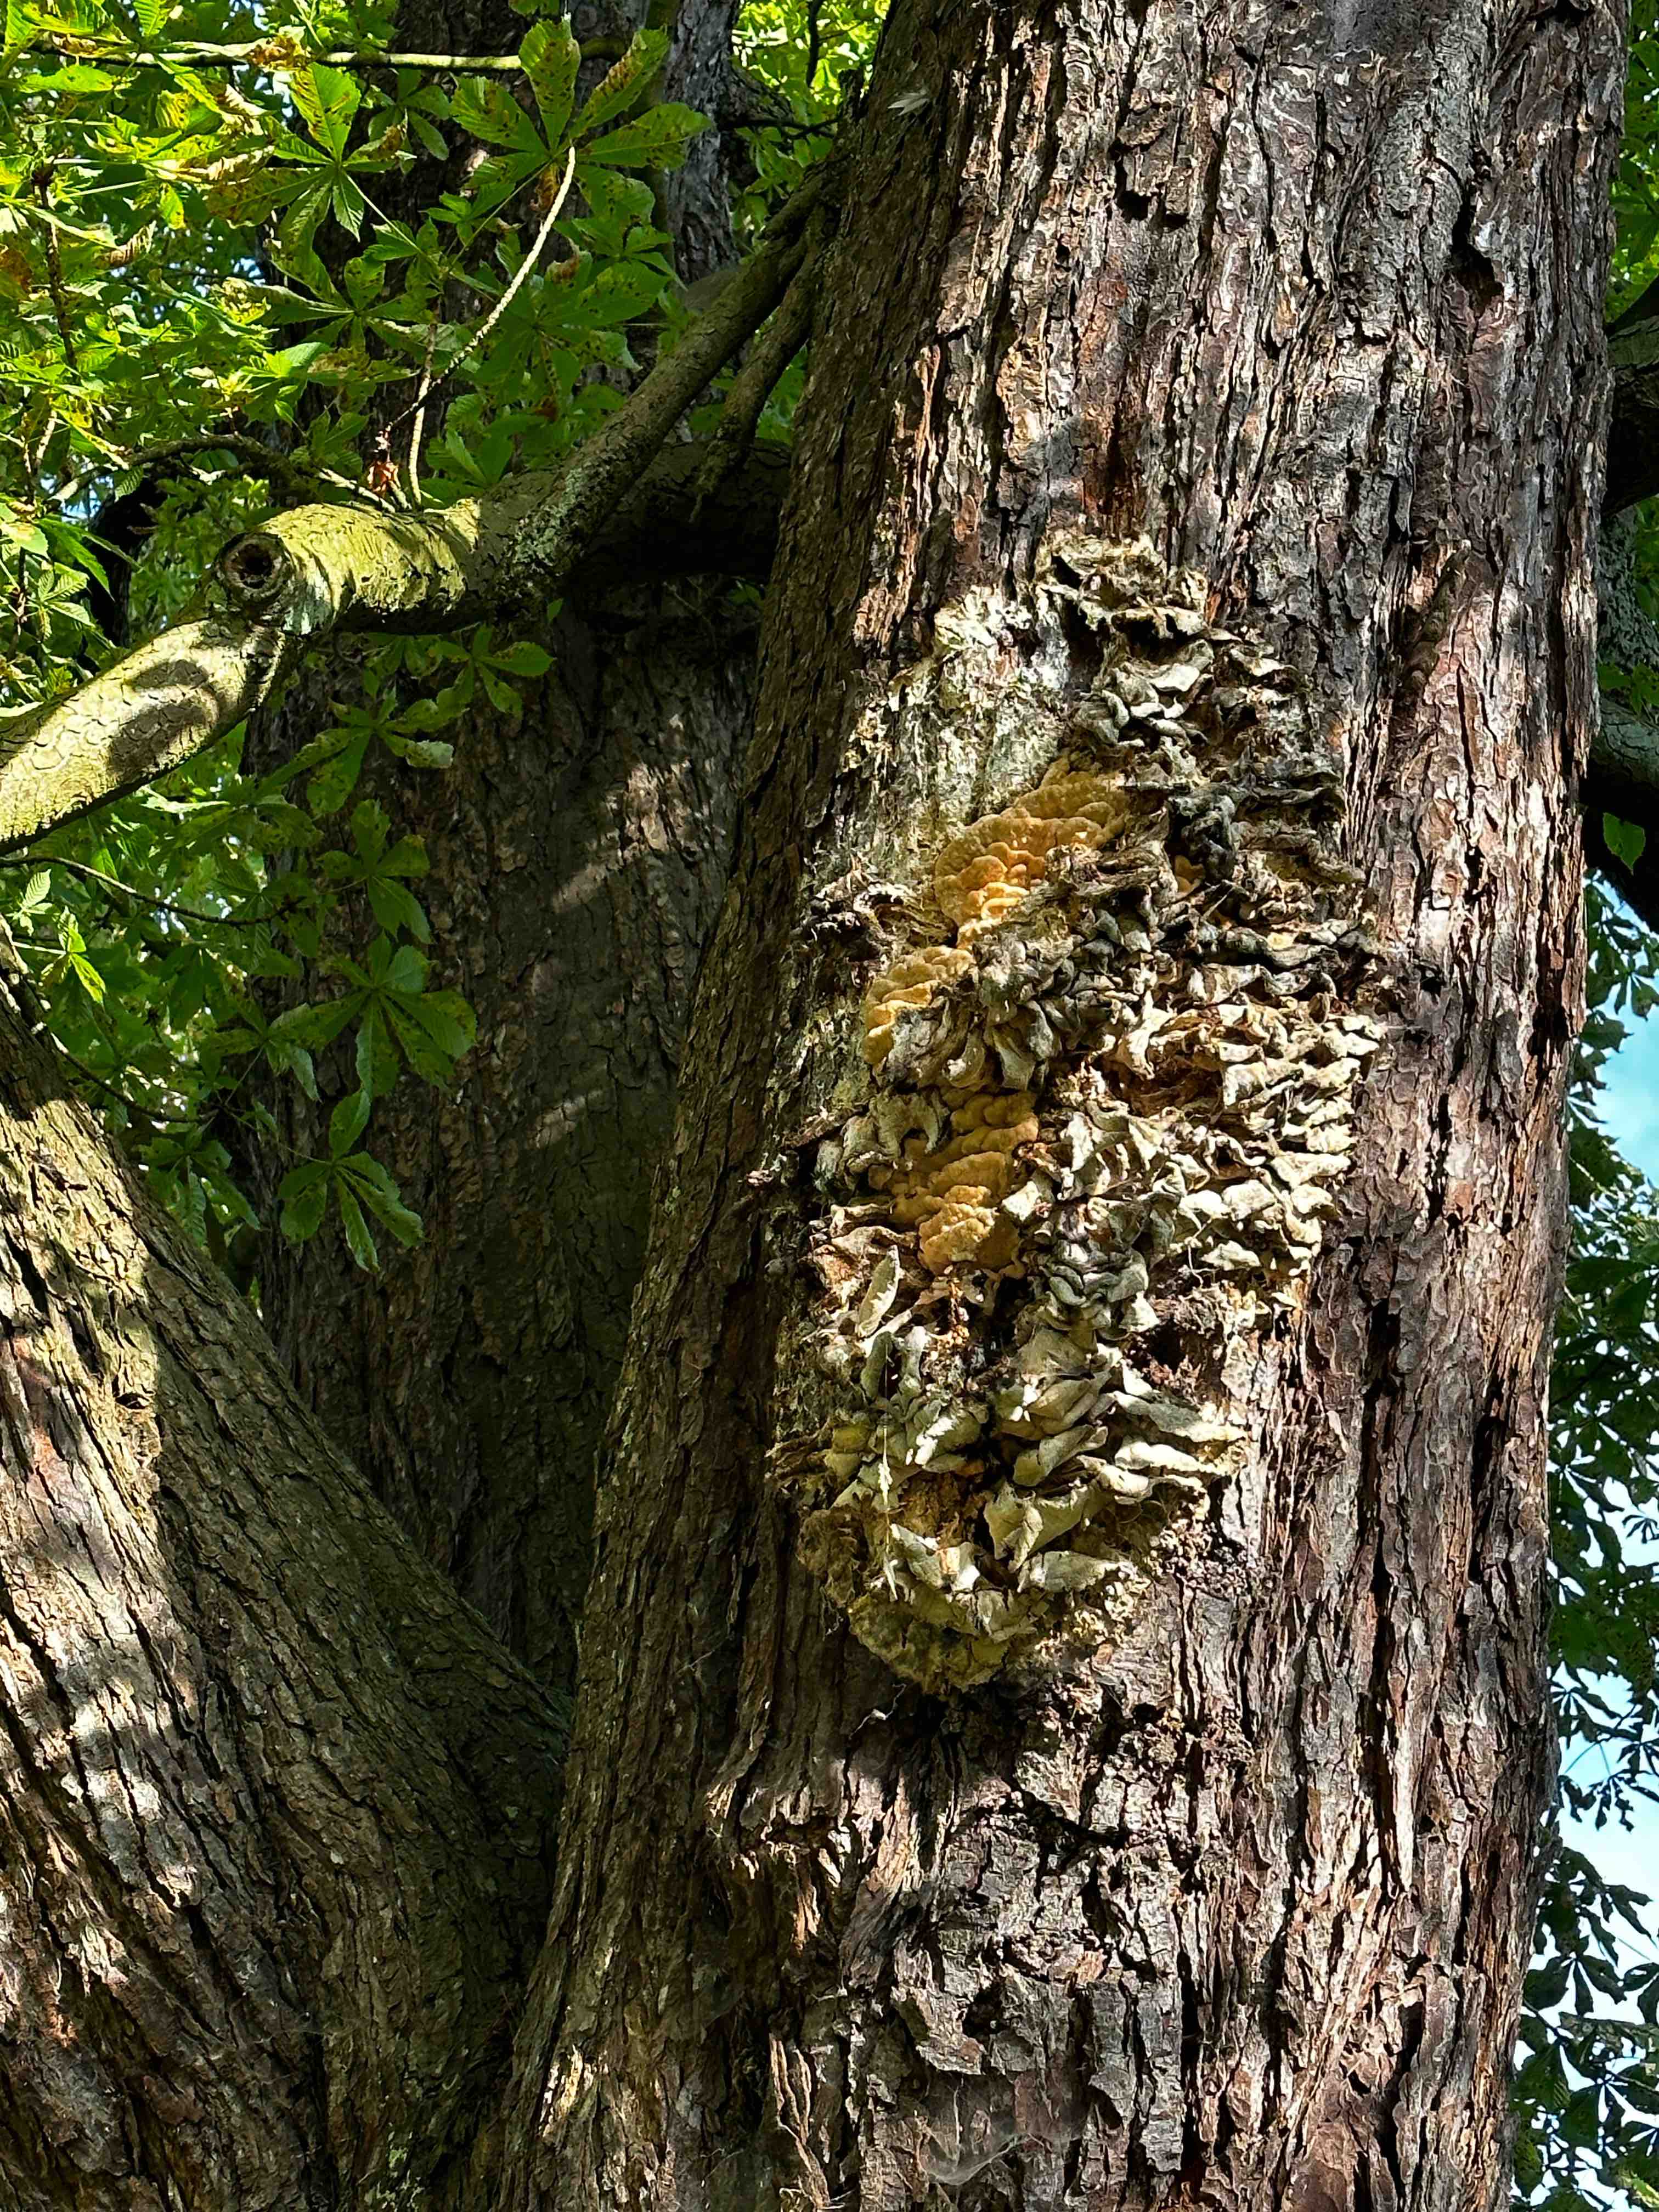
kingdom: Fungi
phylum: Basidiomycota
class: Agaricomycetes
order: Polyporales
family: Meruliaceae
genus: Climacodon
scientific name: Climacodon septentrionalis
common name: kæmpepigsvamp
